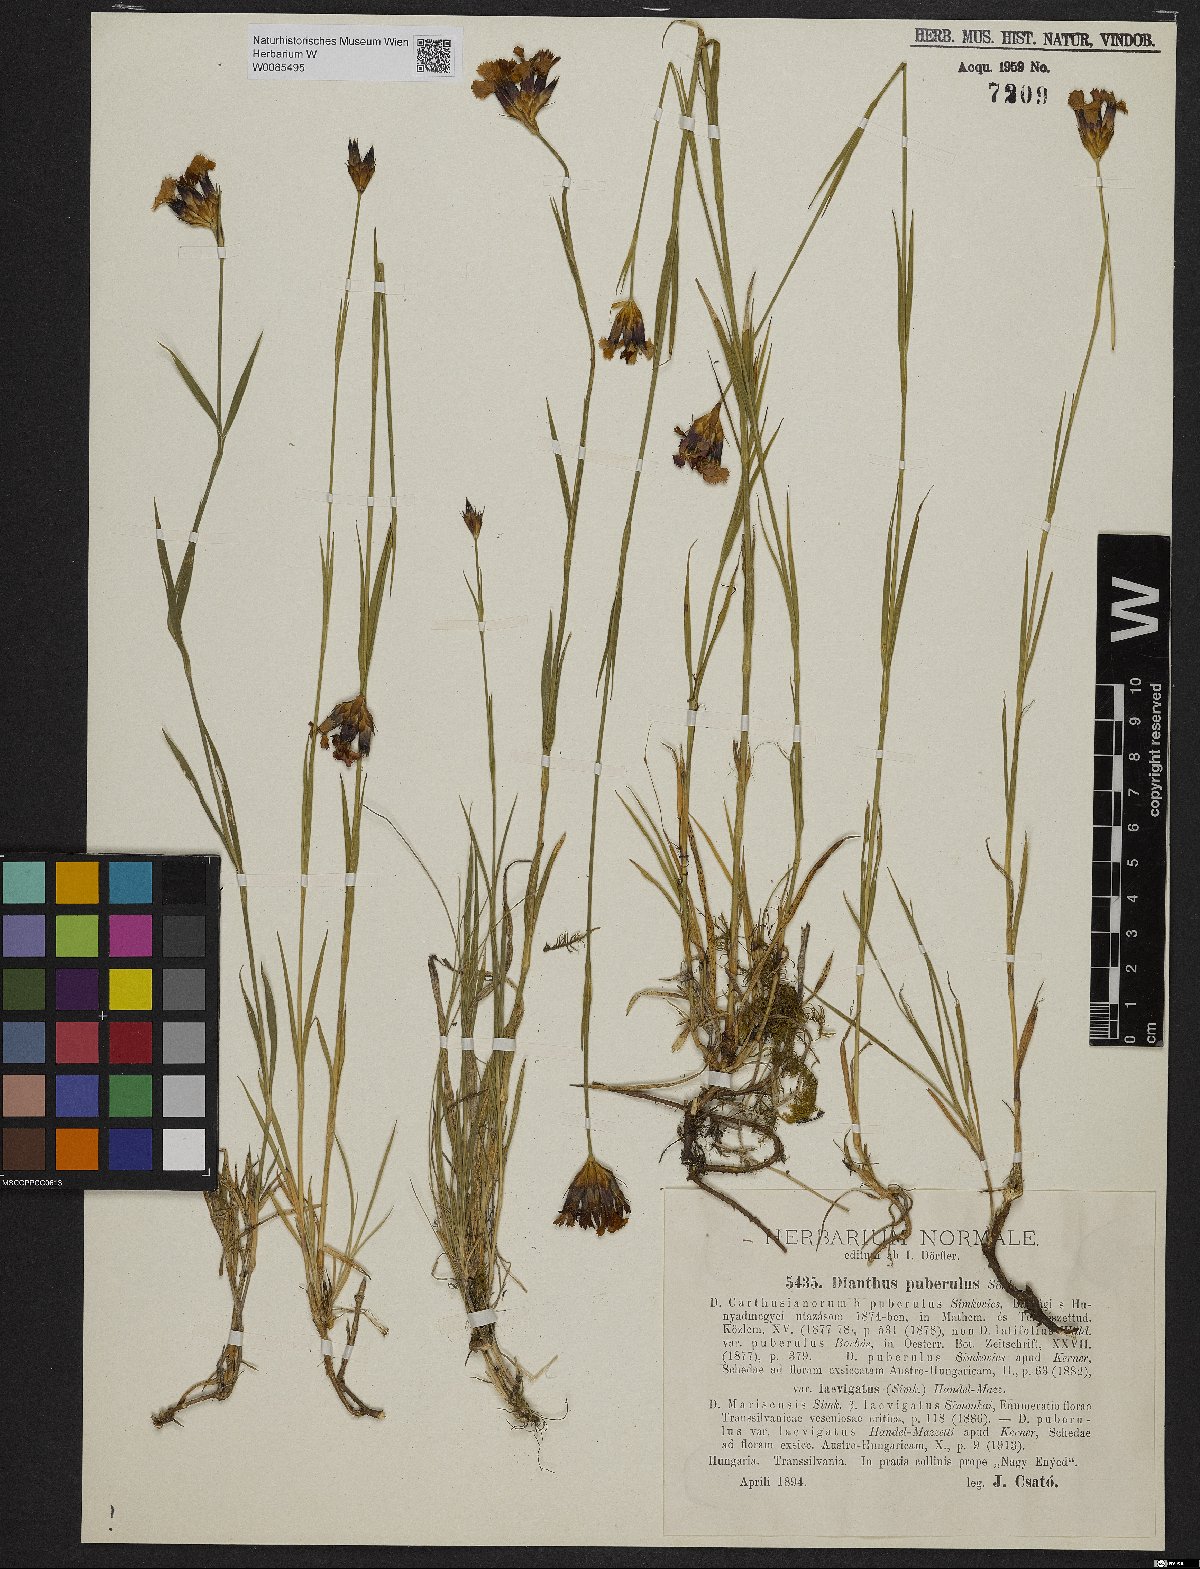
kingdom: Plantae
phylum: Tracheophyta
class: Magnoliopsida
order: Caryophyllales
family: Caryophyllaceae
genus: Dianthus
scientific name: Dianthus carthusianorum
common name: Carthusian pink
